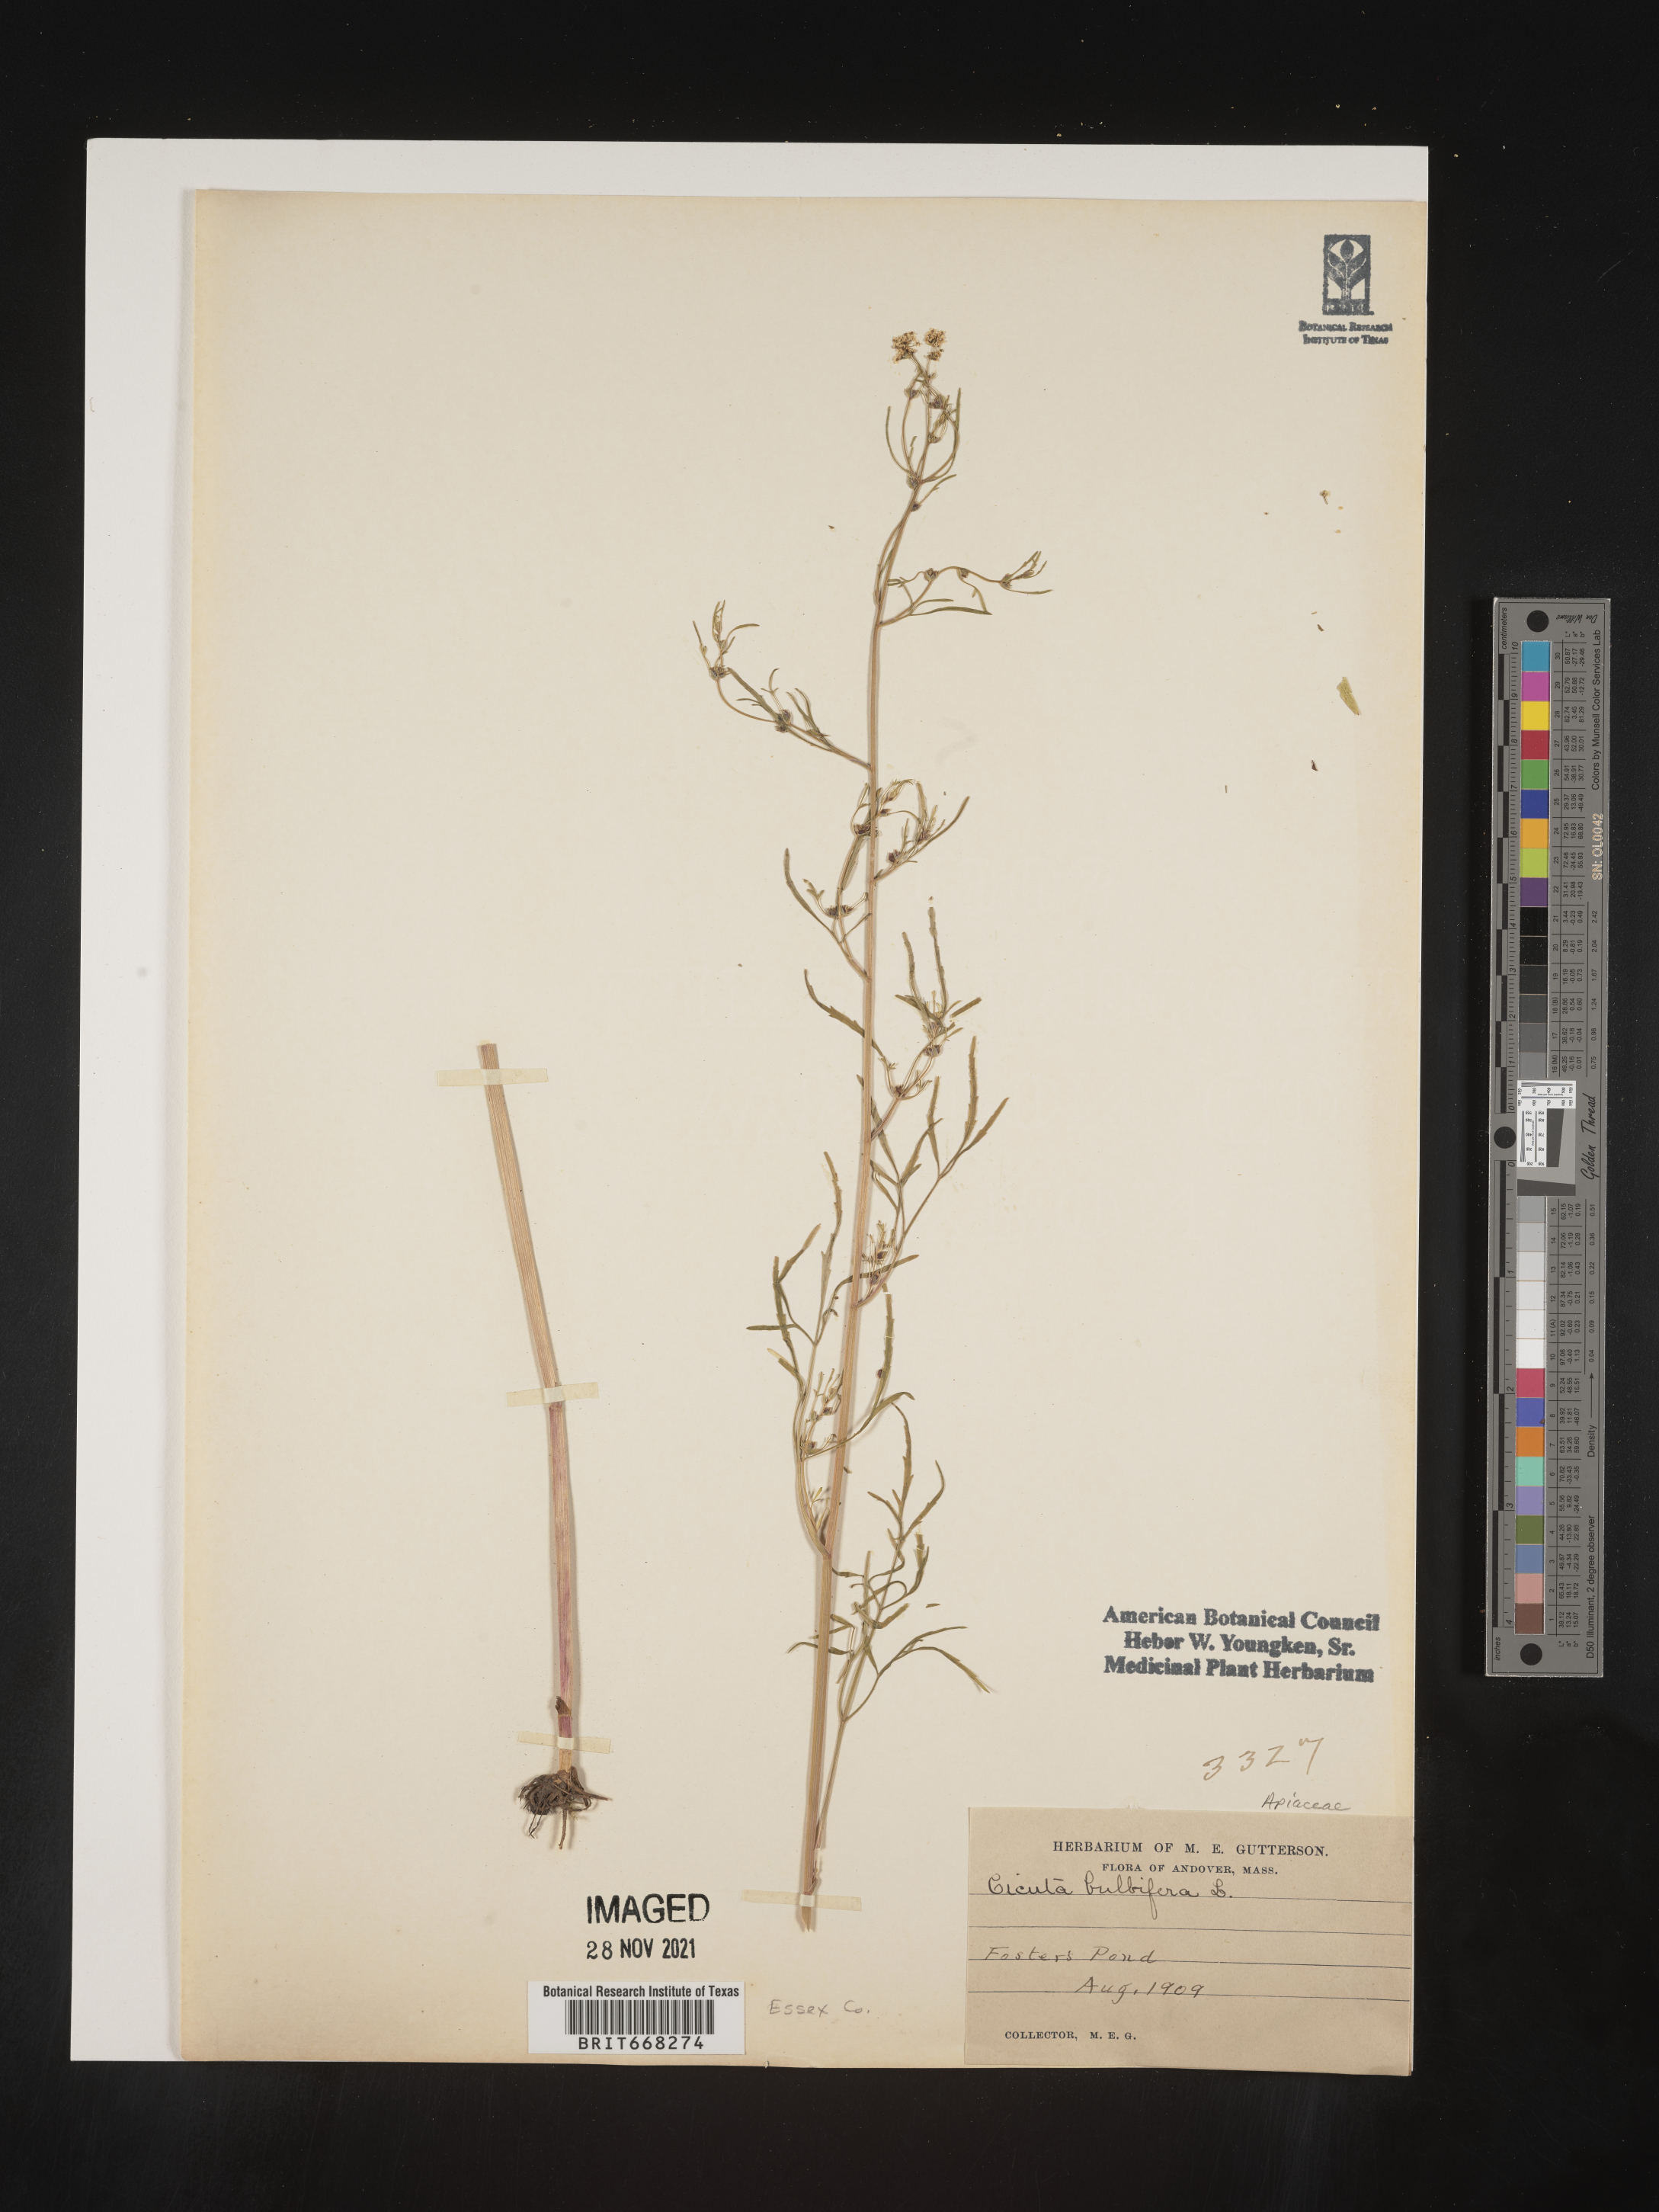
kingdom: Plantae
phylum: Tracheophyta
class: Magnoliopsida
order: Apiales
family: Apiaceae
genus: Cicuta
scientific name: Cicuta
